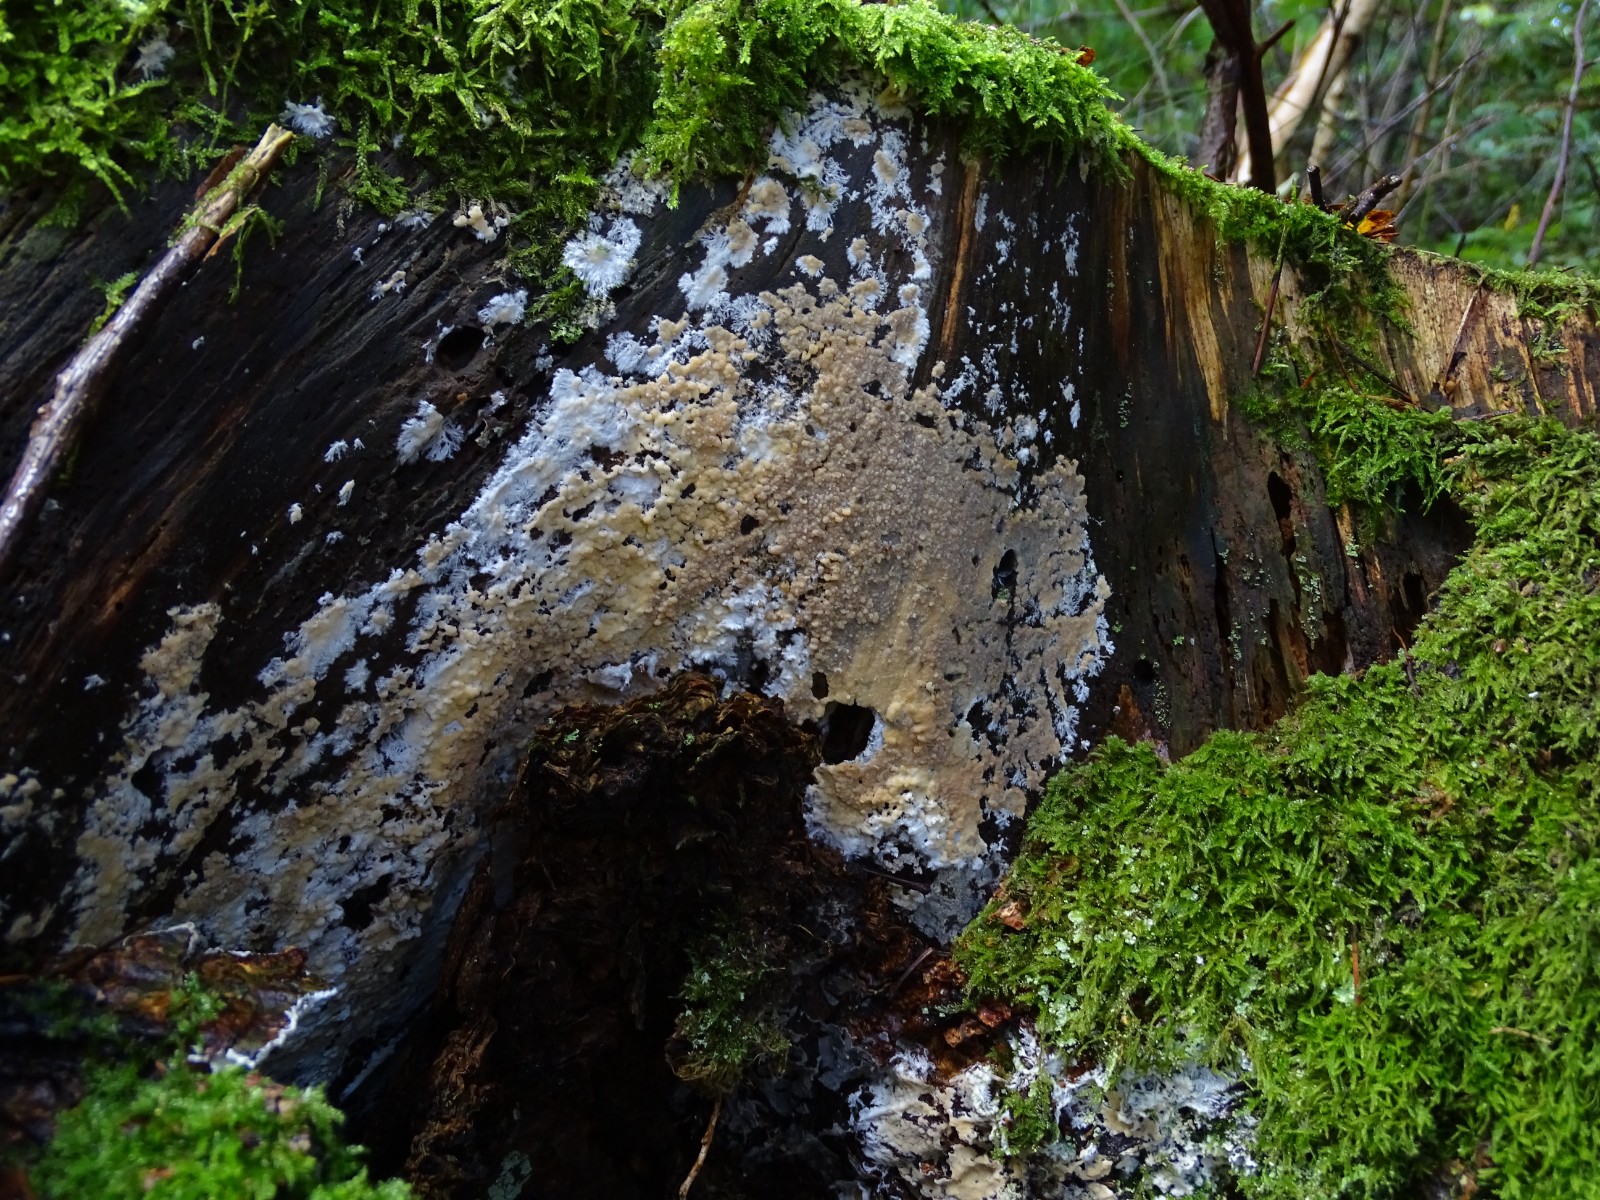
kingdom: Fungi
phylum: Basidiomycota
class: Agaricomycetes
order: Russulales
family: Peniophoraceae
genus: Gloiothele
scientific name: Gloiothele citrina
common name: citronskorpe
